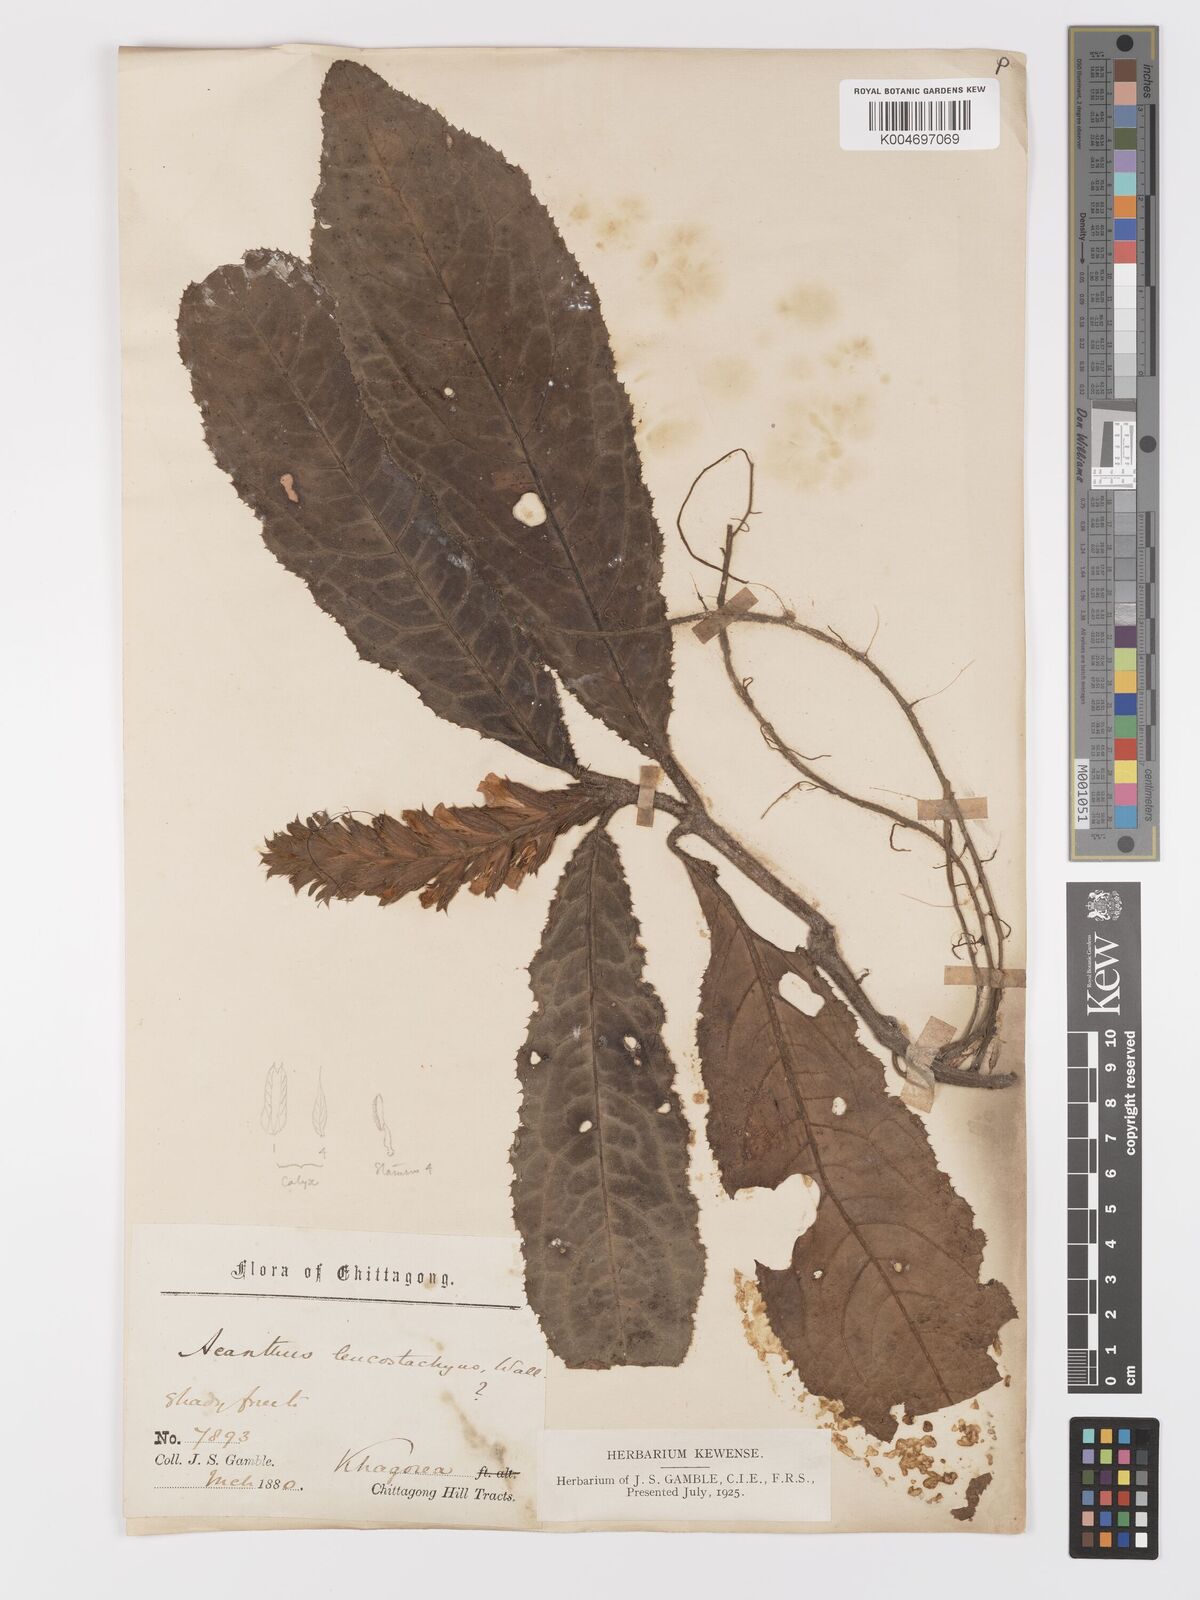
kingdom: Plantae
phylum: Tracheophyta
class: Magnoliopsida
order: Lamiales
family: Acanthaceae
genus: Acanthus
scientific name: Acanthus leucostachyus
